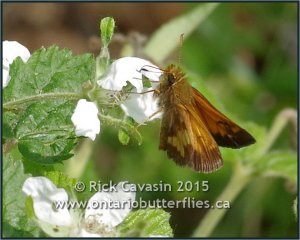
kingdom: Animalia
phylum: Arthropoda
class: Insecta
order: Lepidoptera
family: Hesperiidae
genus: Lon
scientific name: Lon hobomok
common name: Hobomok Skipper
